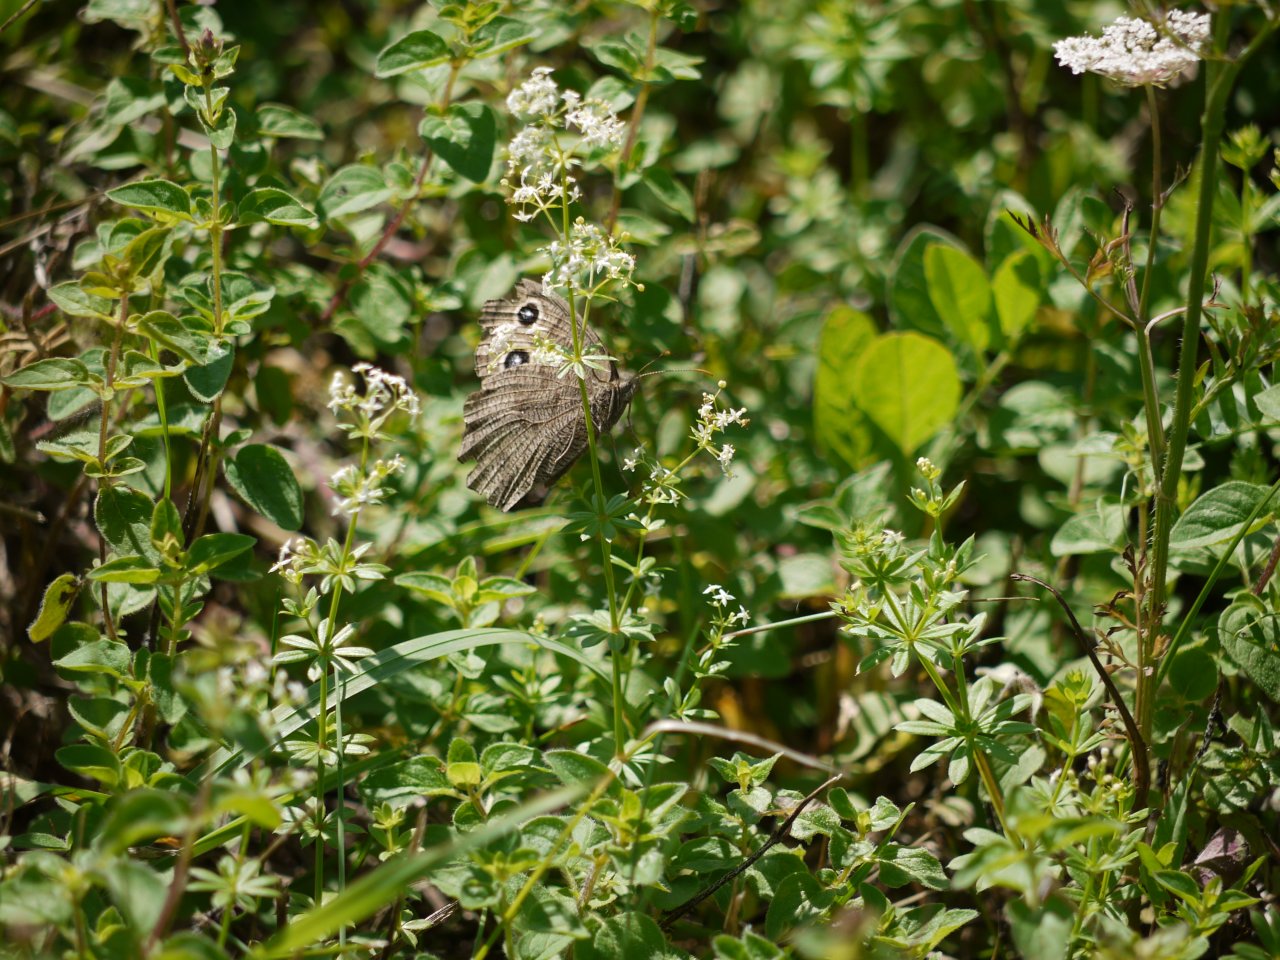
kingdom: Animalia
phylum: Arthropoda
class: Insecta
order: Lepidoptera
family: Nymphalidae
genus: Cercyonis
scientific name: Cercyonis pegala
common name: Common Wood-Nymph
